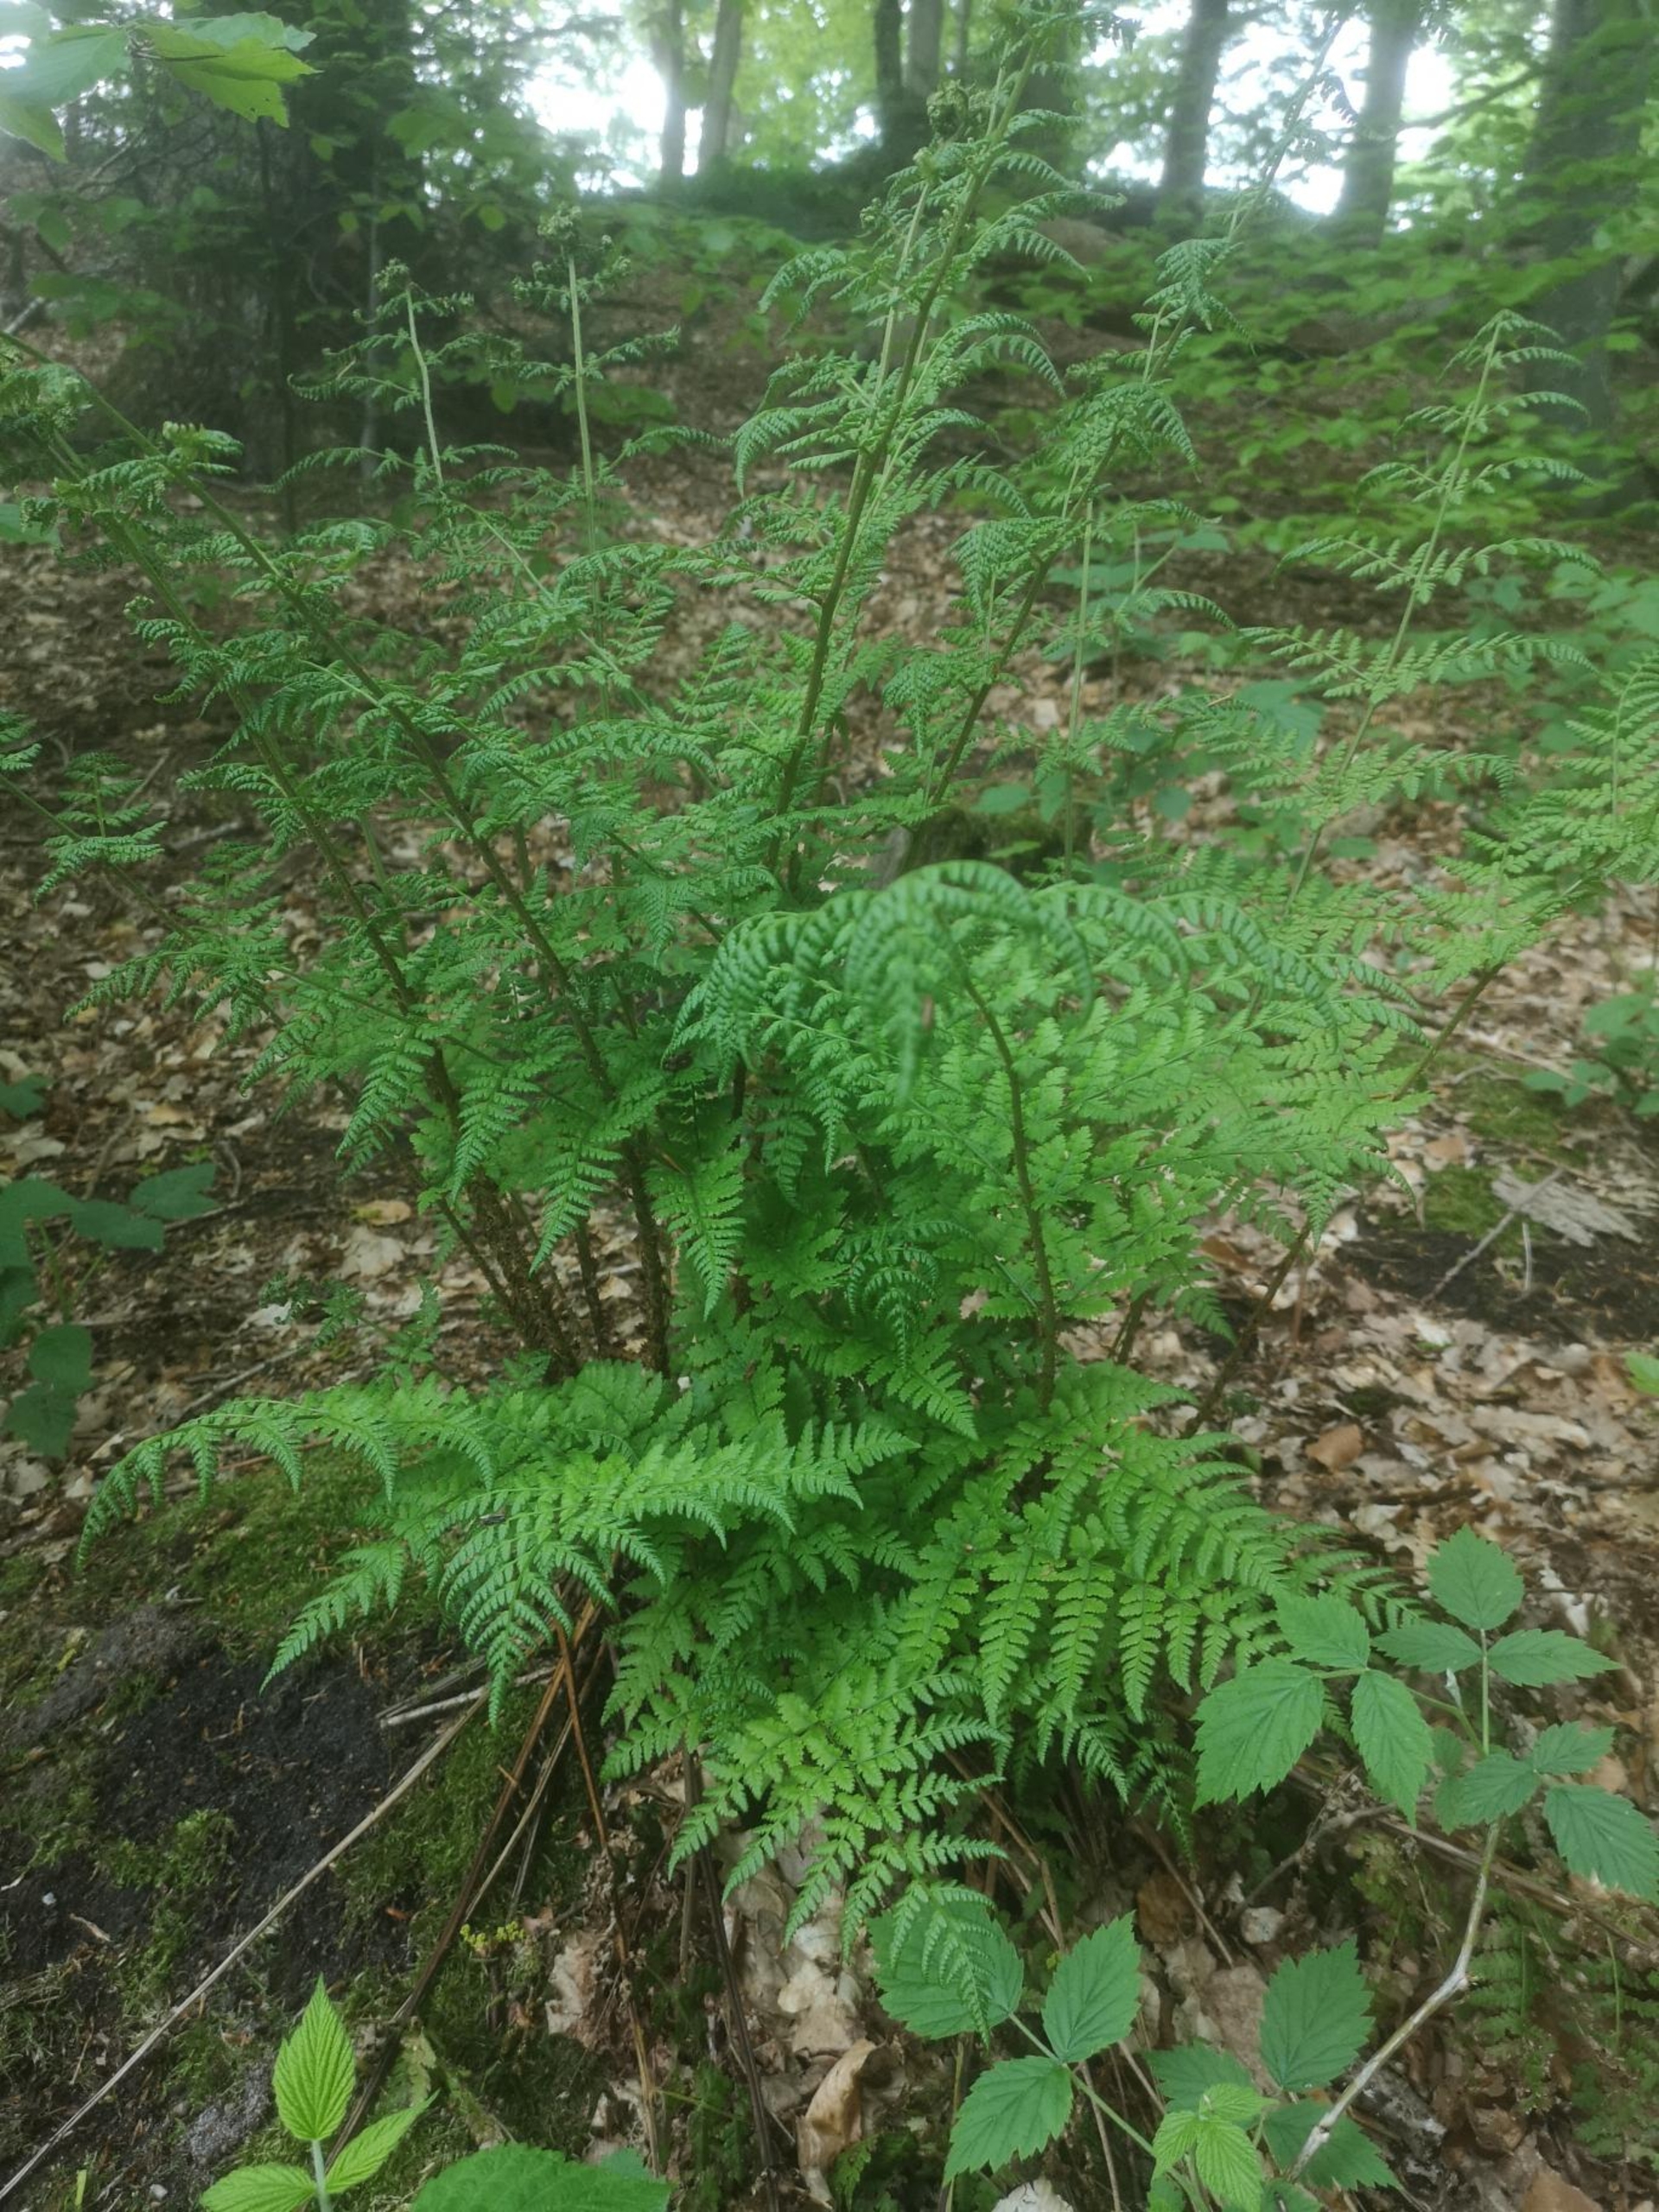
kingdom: Plantae
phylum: Tracheophyta
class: Polypodiopsida
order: Polypodiales
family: Dryopteridaceae
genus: Dryopteris
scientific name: Dryopteris dilatata
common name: Bredbladet mangeløv
